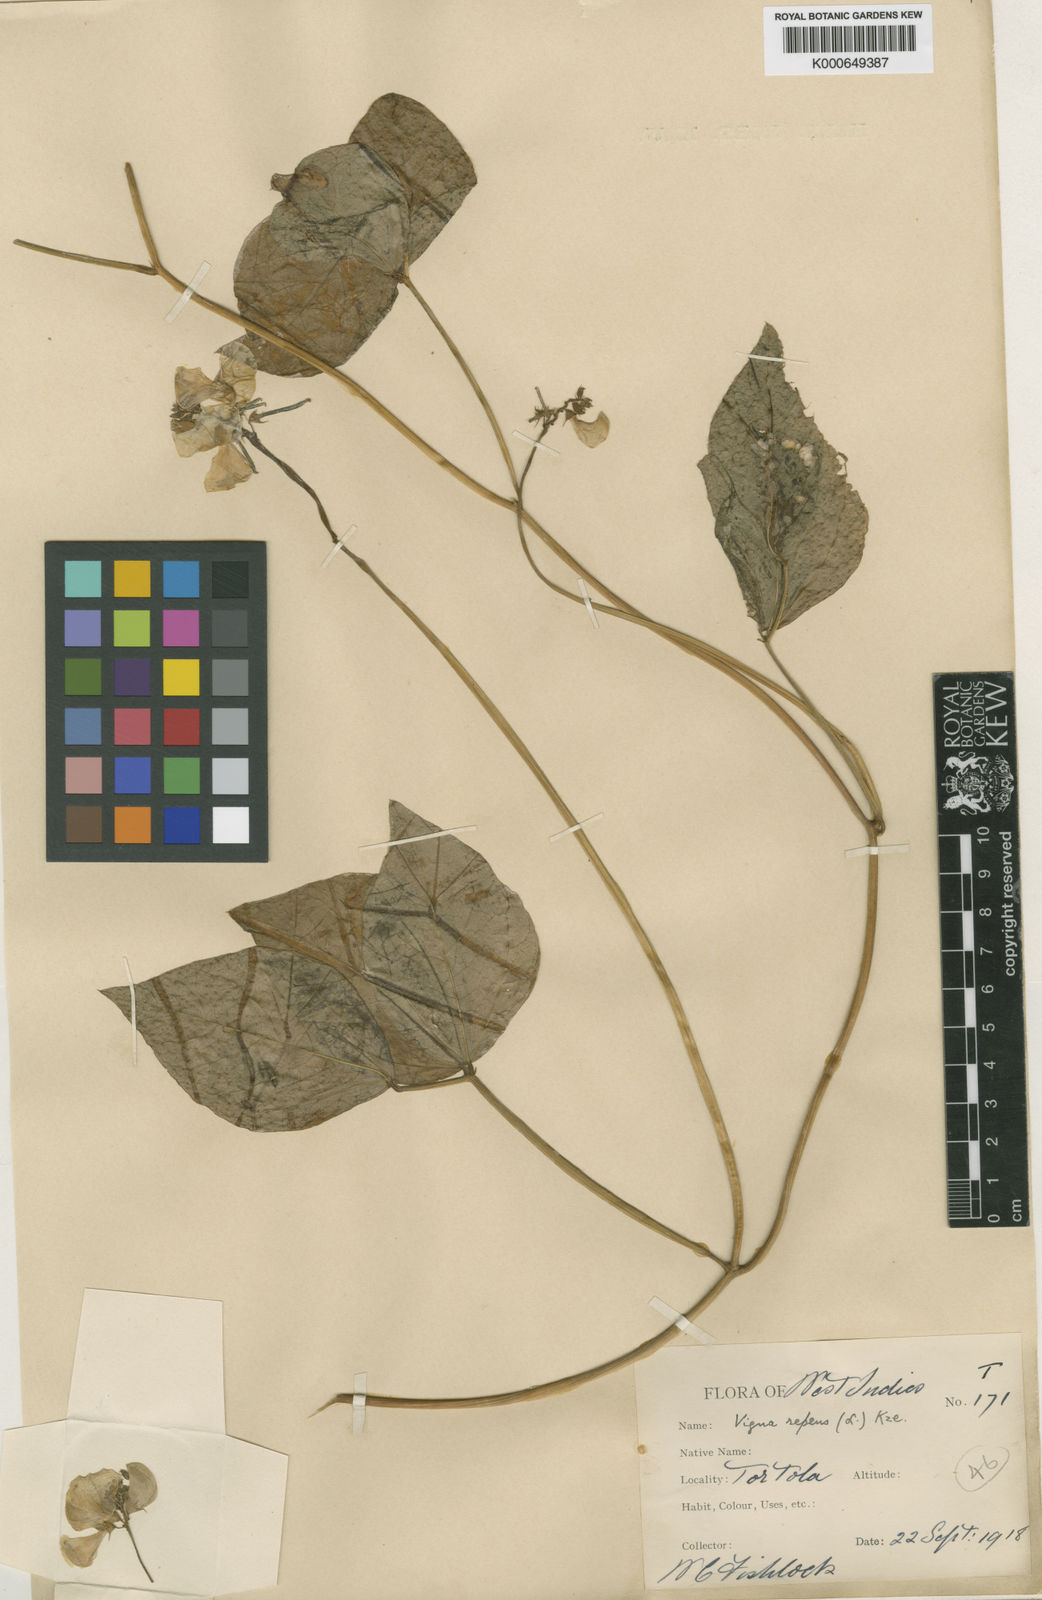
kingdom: Plantae
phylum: Tracheophyta
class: Magnoliopsida
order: Fabales
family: Fabaceae
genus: Vigna
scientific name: Vigna luteola
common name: Hairypod cowpea
